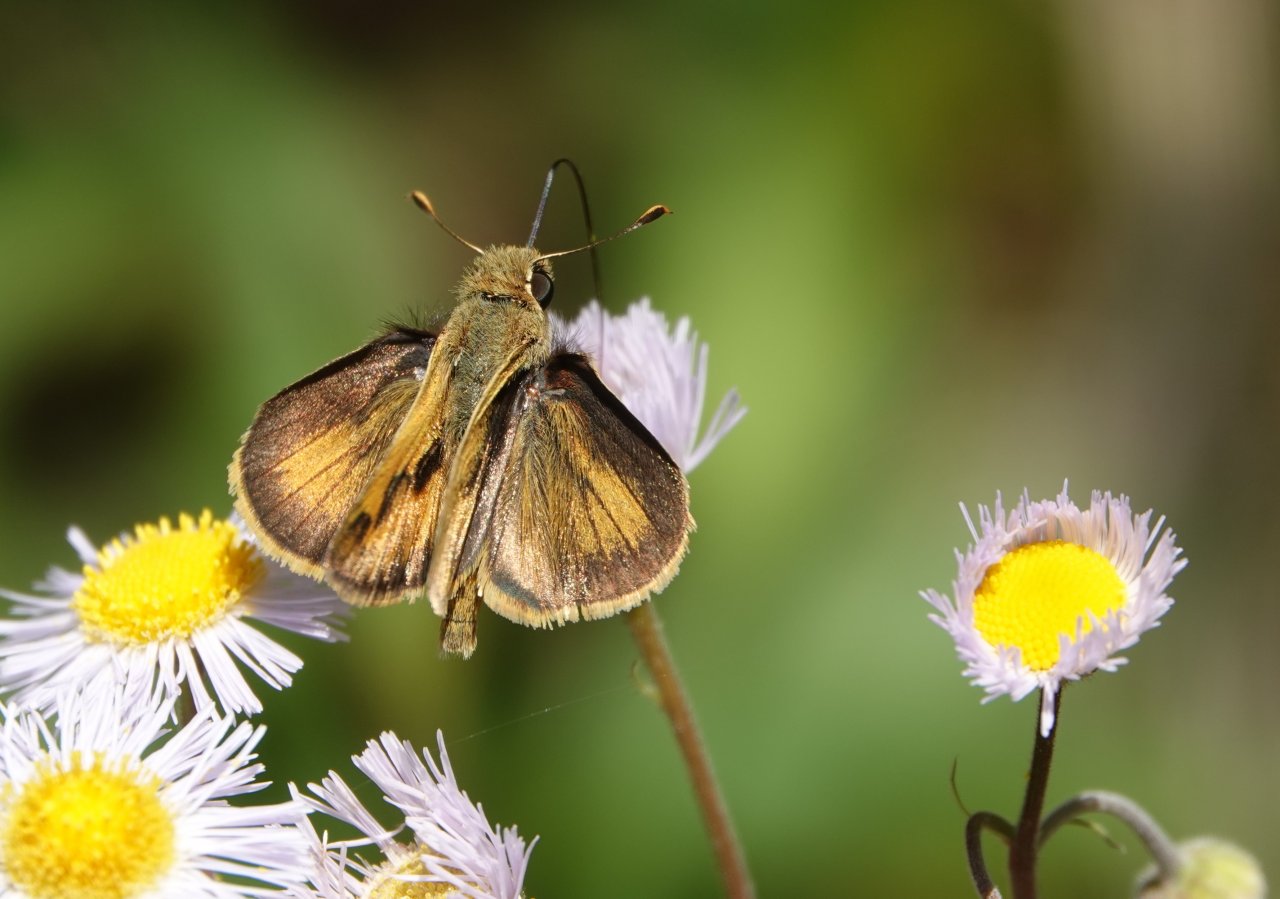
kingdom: Animalia
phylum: Arthropoda
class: Insecta
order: Lepidoptera
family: Hesperiidae
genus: Polites
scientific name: Polites vibex
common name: Whirlabout
